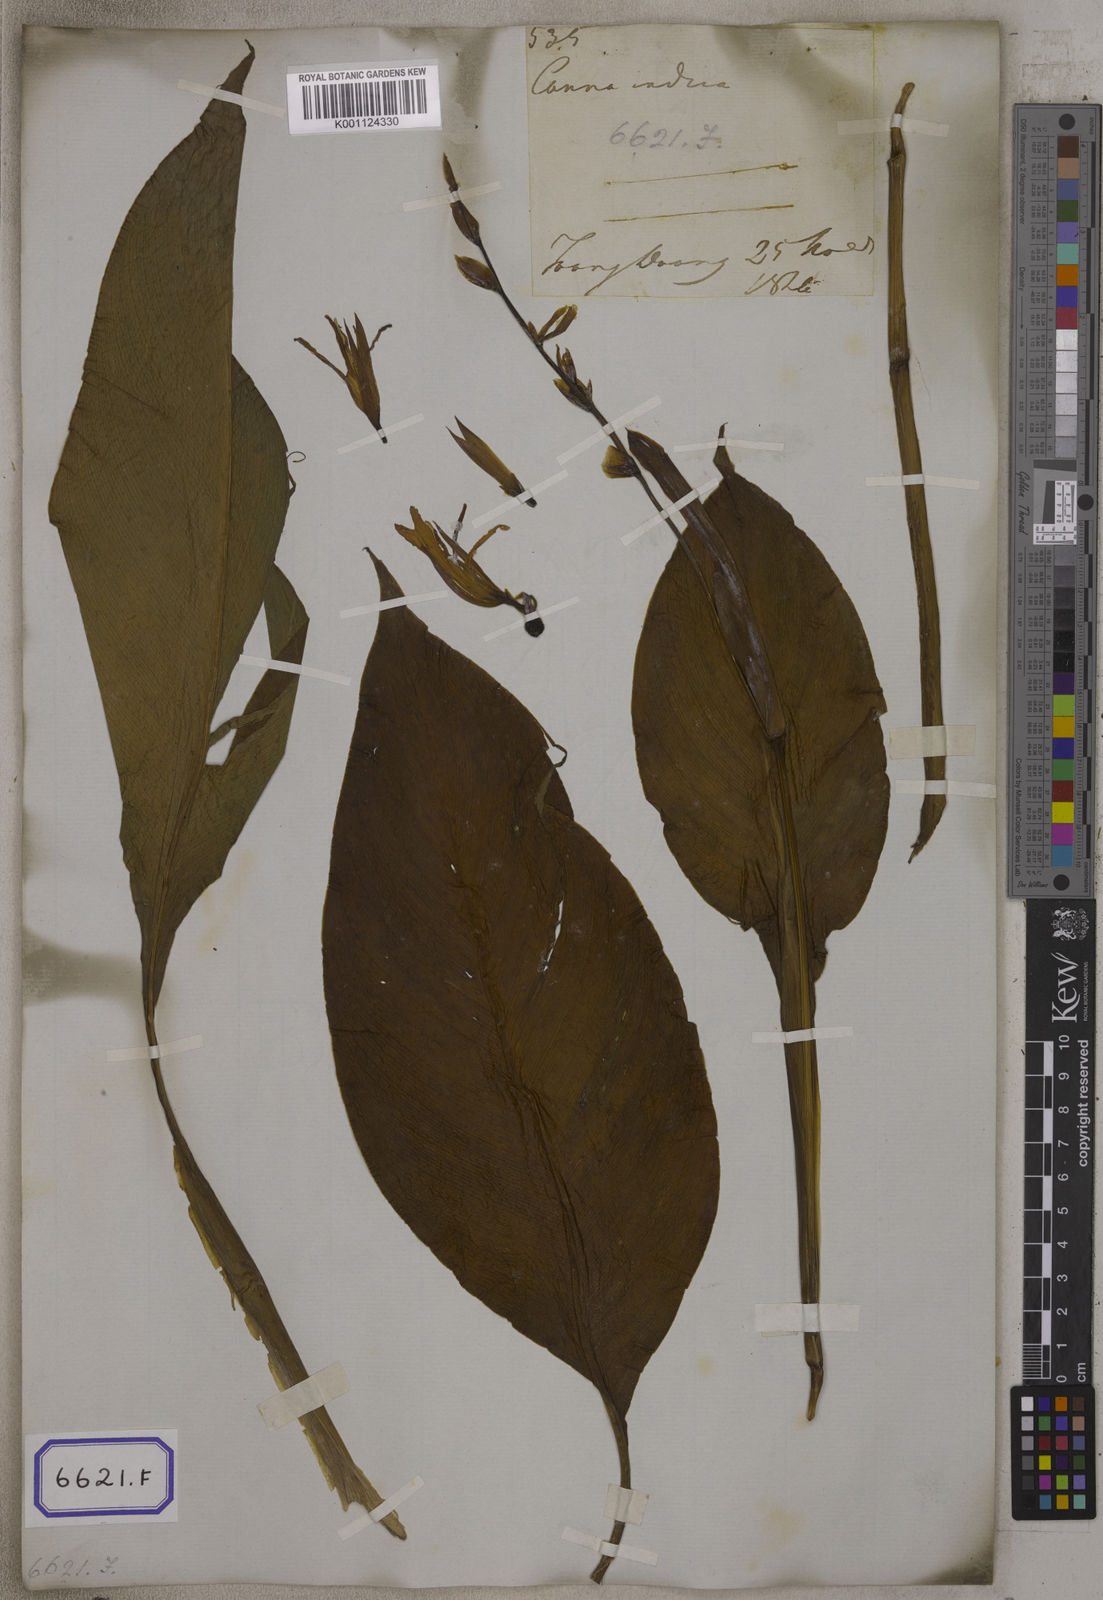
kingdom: Plantae
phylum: Tracheophyta
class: Liliopsida
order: Zingiberales
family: Cannaceae
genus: Canna
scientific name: Canna indica
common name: Indian shot
